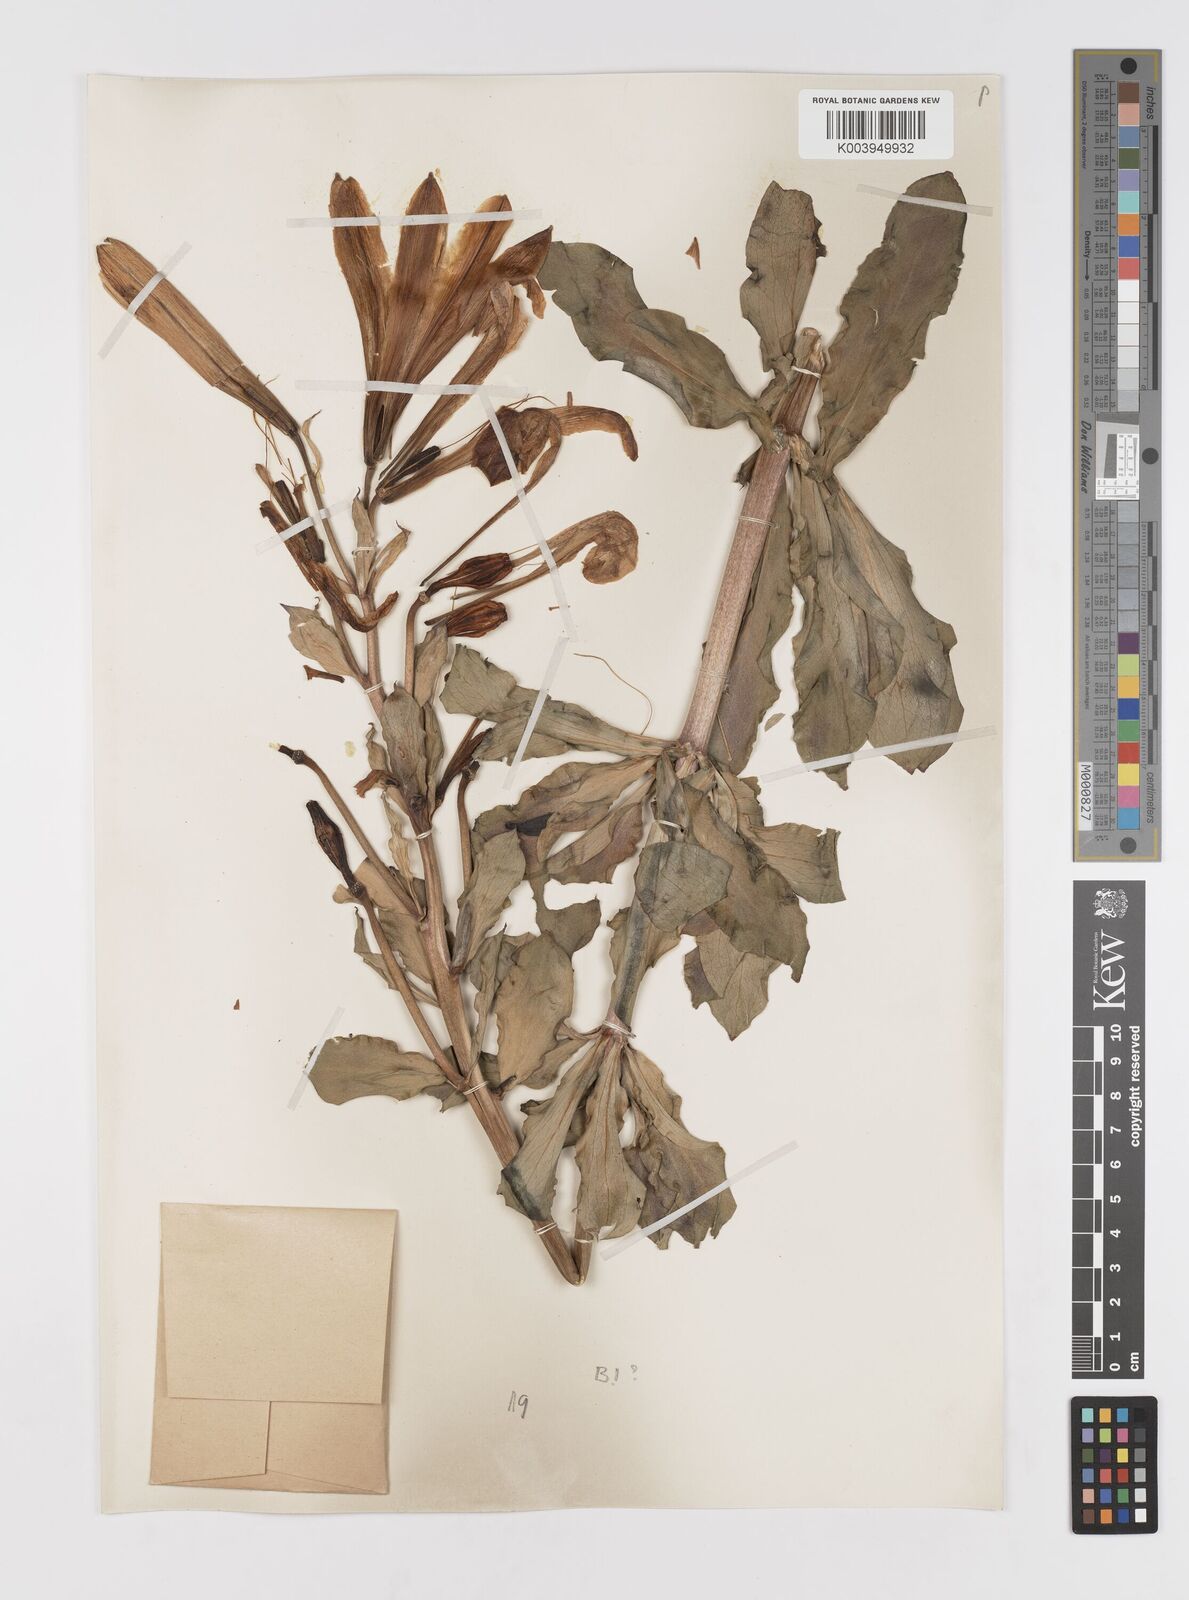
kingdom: Plantae
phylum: Tracheophyta
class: Liliopsida
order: Liliales
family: Liliaceae
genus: Lilium
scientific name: Lilium washingtonianum
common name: Washington lily
